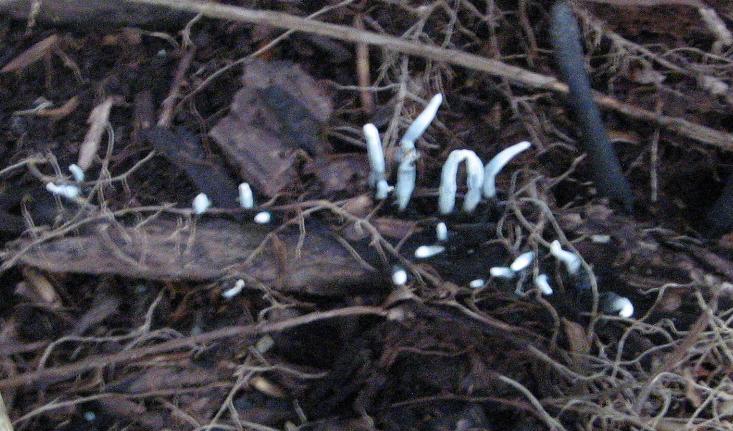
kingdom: Fungi
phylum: Ascomycota
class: Sordariomycetes
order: Xylariales
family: Xylariaceae
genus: Xylaria
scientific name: Xylaria hypoxylon
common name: grenet stødsvamp
